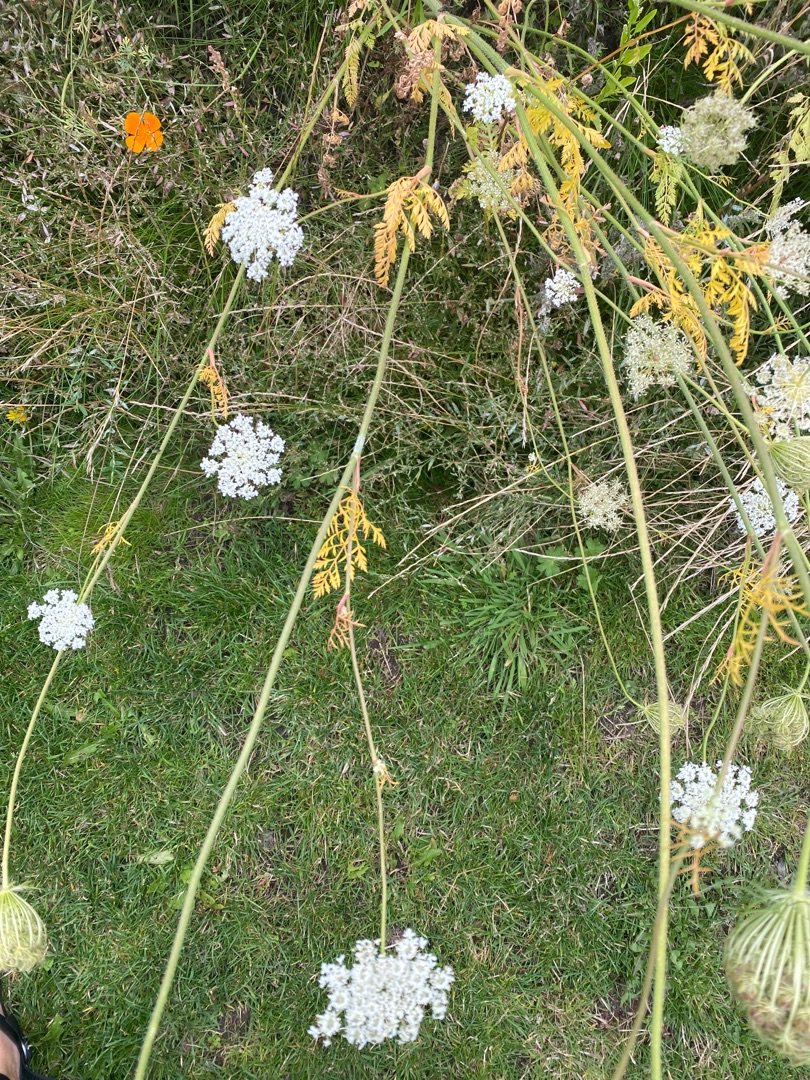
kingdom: Plantae
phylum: Tracheophyta
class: Magnoliopsida
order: Apiales
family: Apiaceae
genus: Daucus
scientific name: Daucus carota
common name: Gulerod
